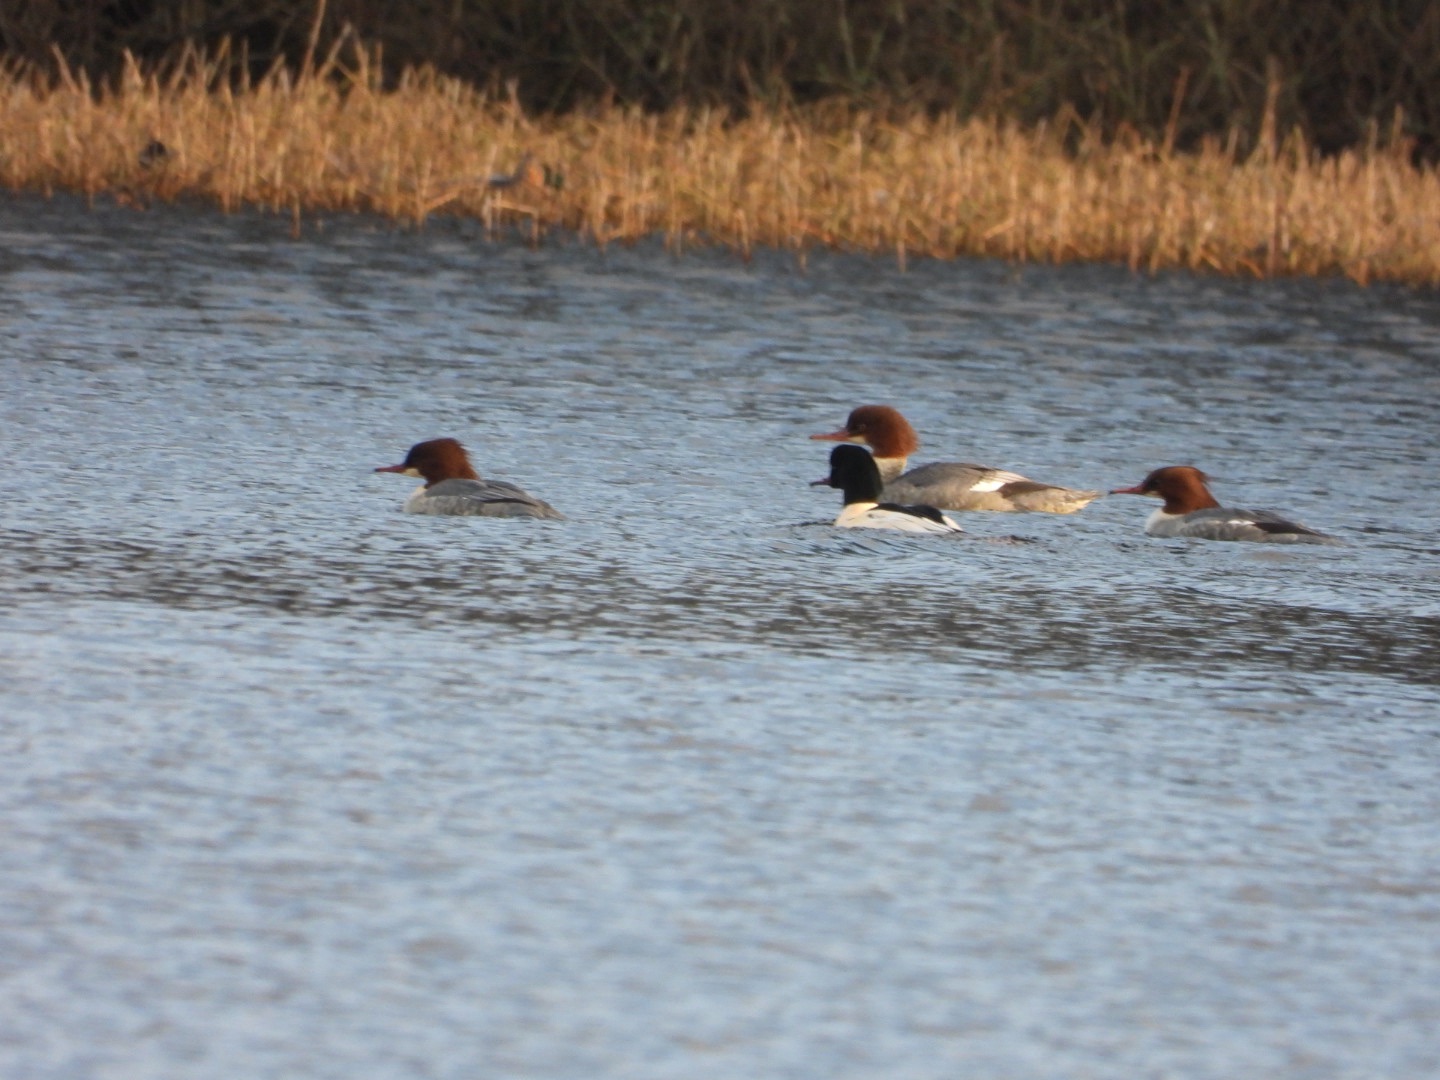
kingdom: Animalia
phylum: Chordata
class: Aves
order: Anseriformes
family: Anatidae
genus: Mergus
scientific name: Mergus merganser
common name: Stor skallesluger
